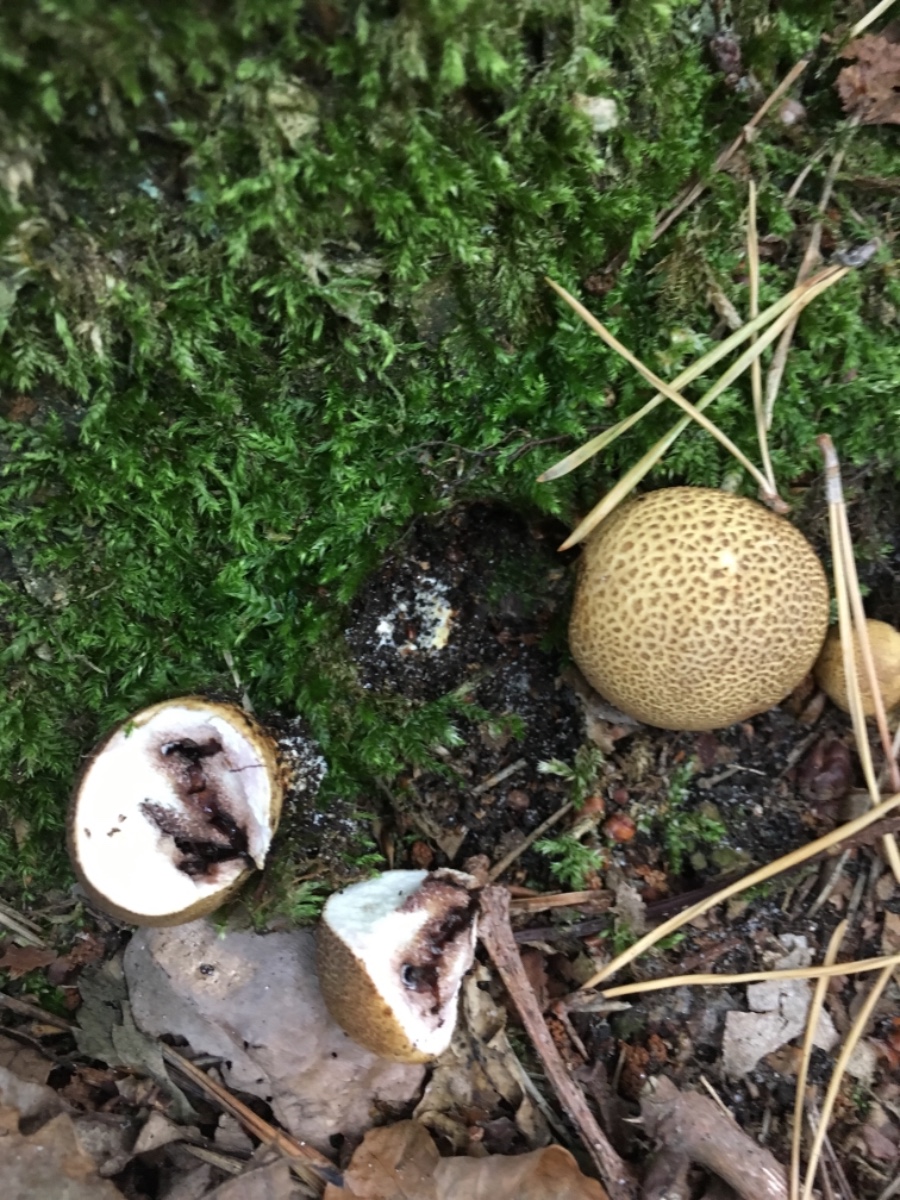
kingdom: Fungi
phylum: Basidiomycota
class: Agaricomycetes
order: Boletales
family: Sclerodermataceae
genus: Scleroderma
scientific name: Scleroderma citrinum
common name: almindelig bruskbold
